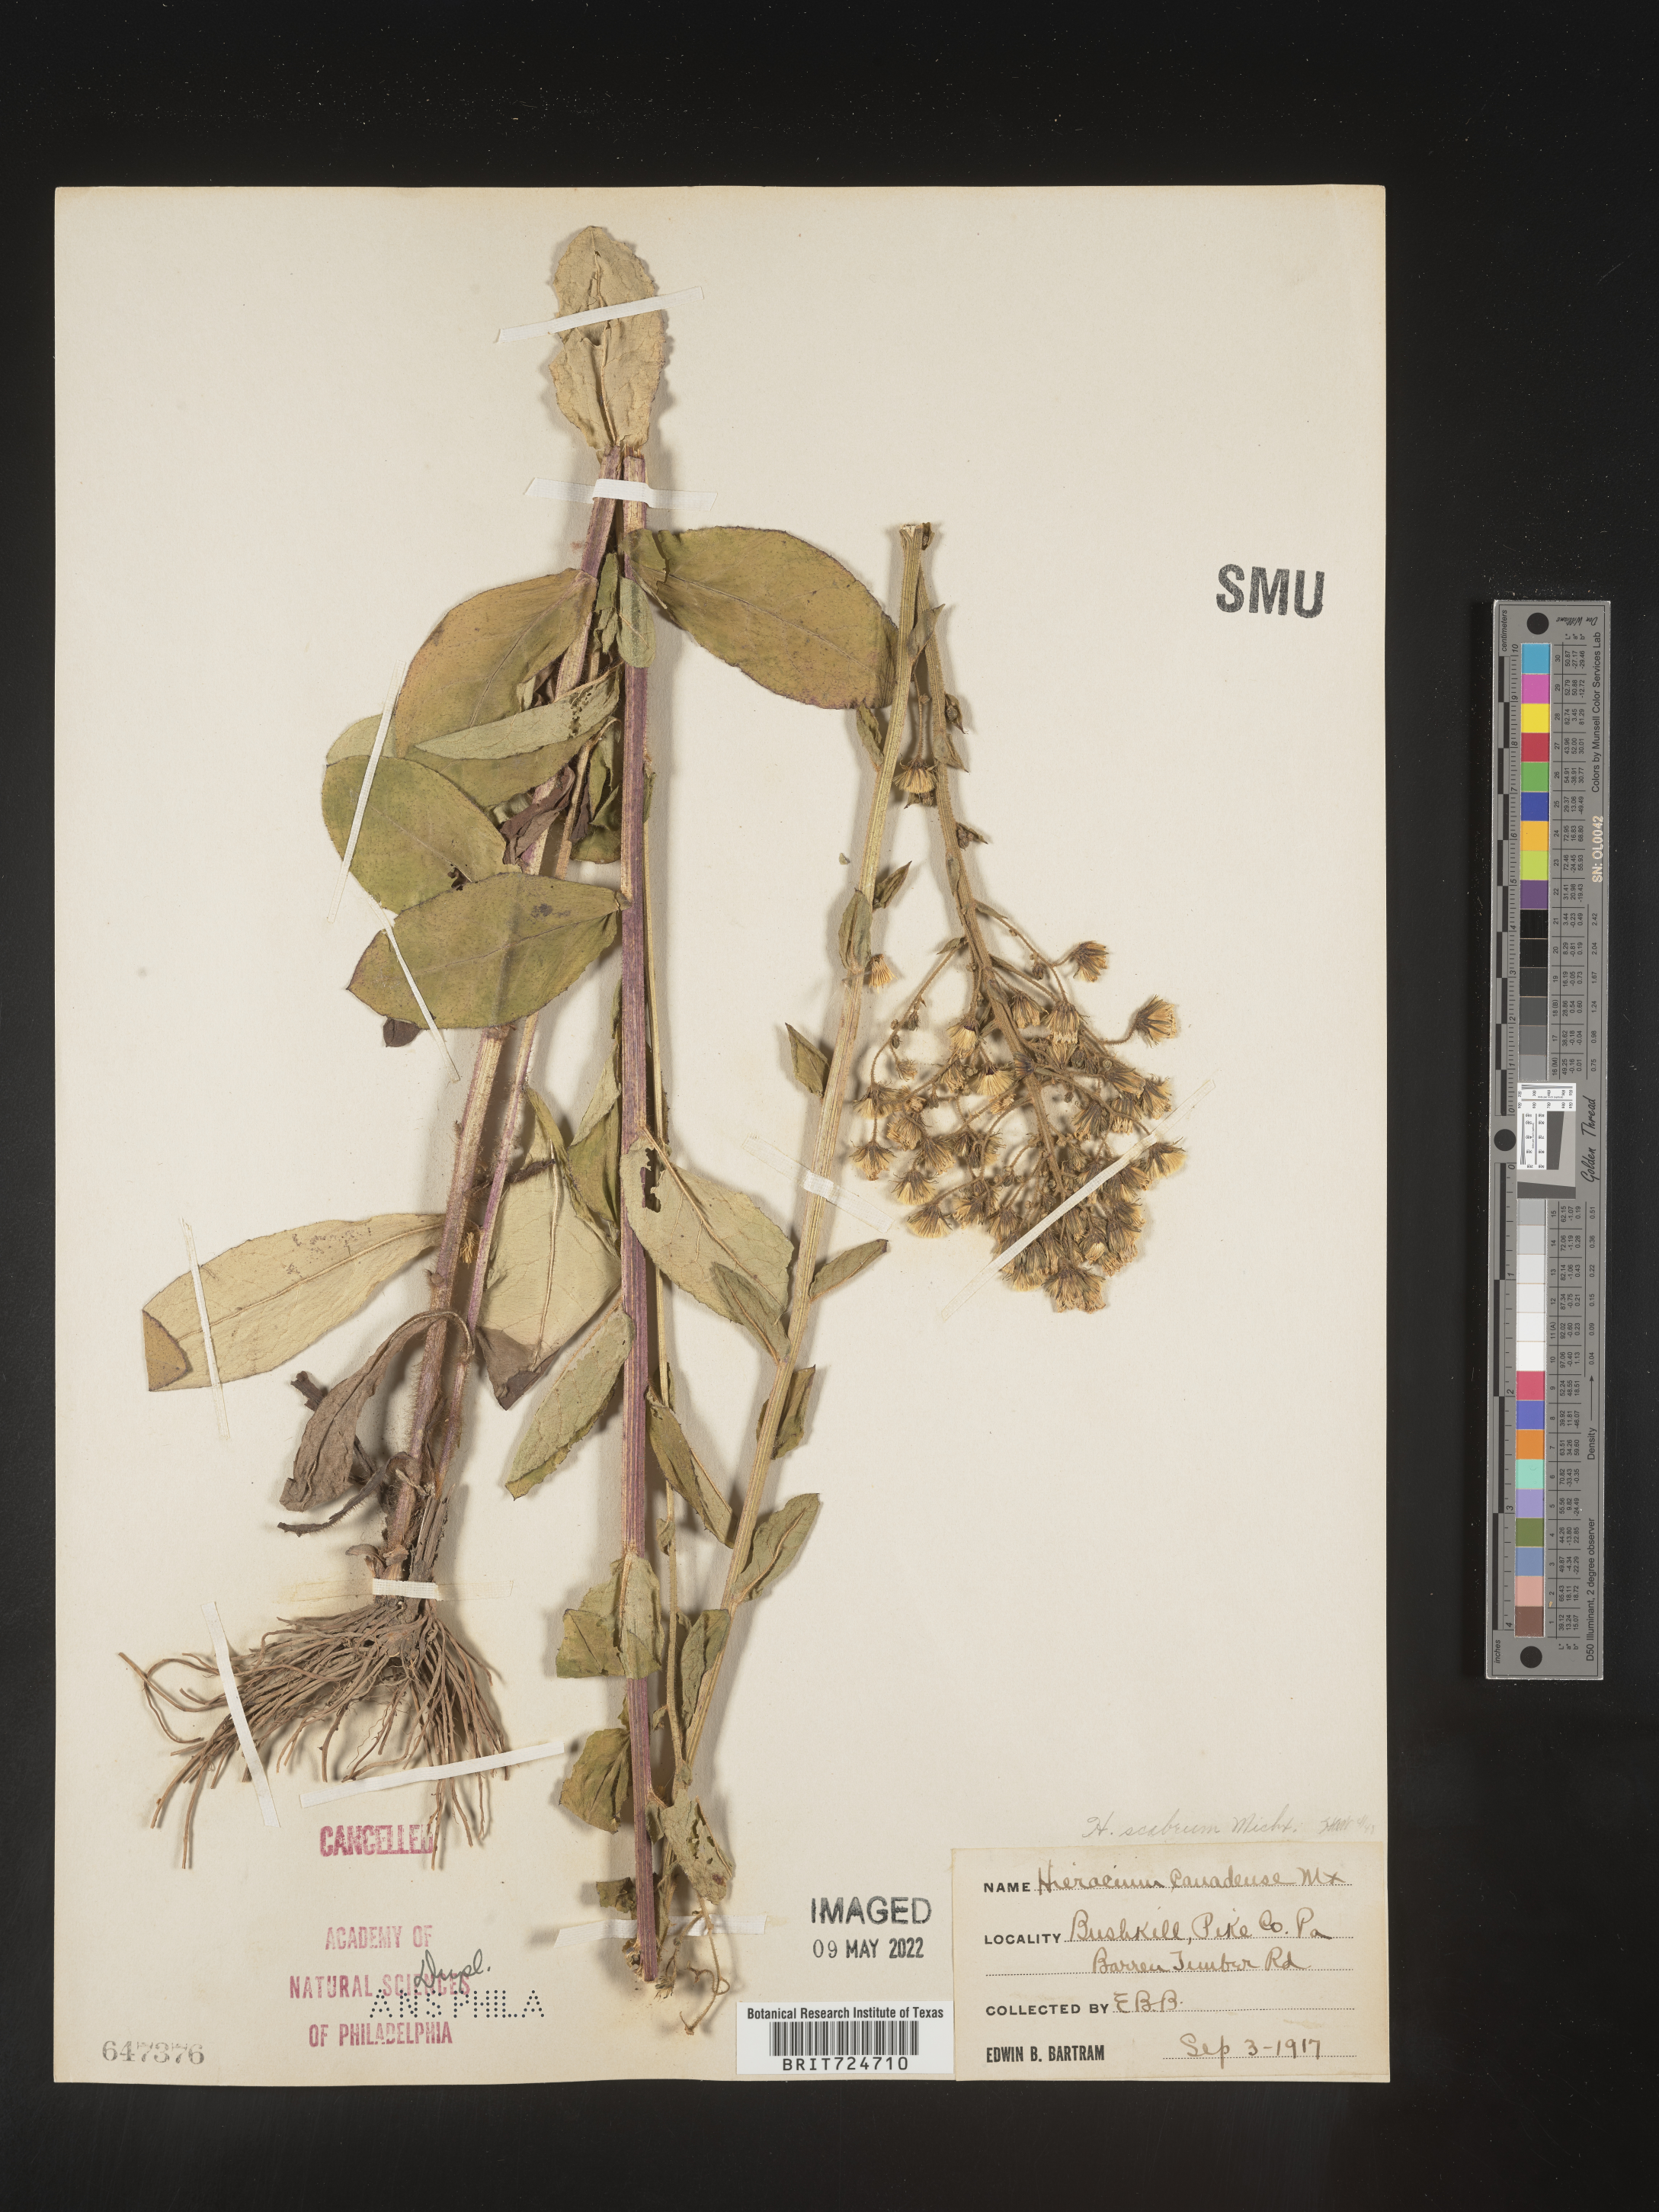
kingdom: Plantae
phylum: Tracheophyta
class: Magnoliopsida
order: Asterales
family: Asteraceae
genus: Hieracium
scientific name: Hieracium scabrum
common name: Rough hawkweed
